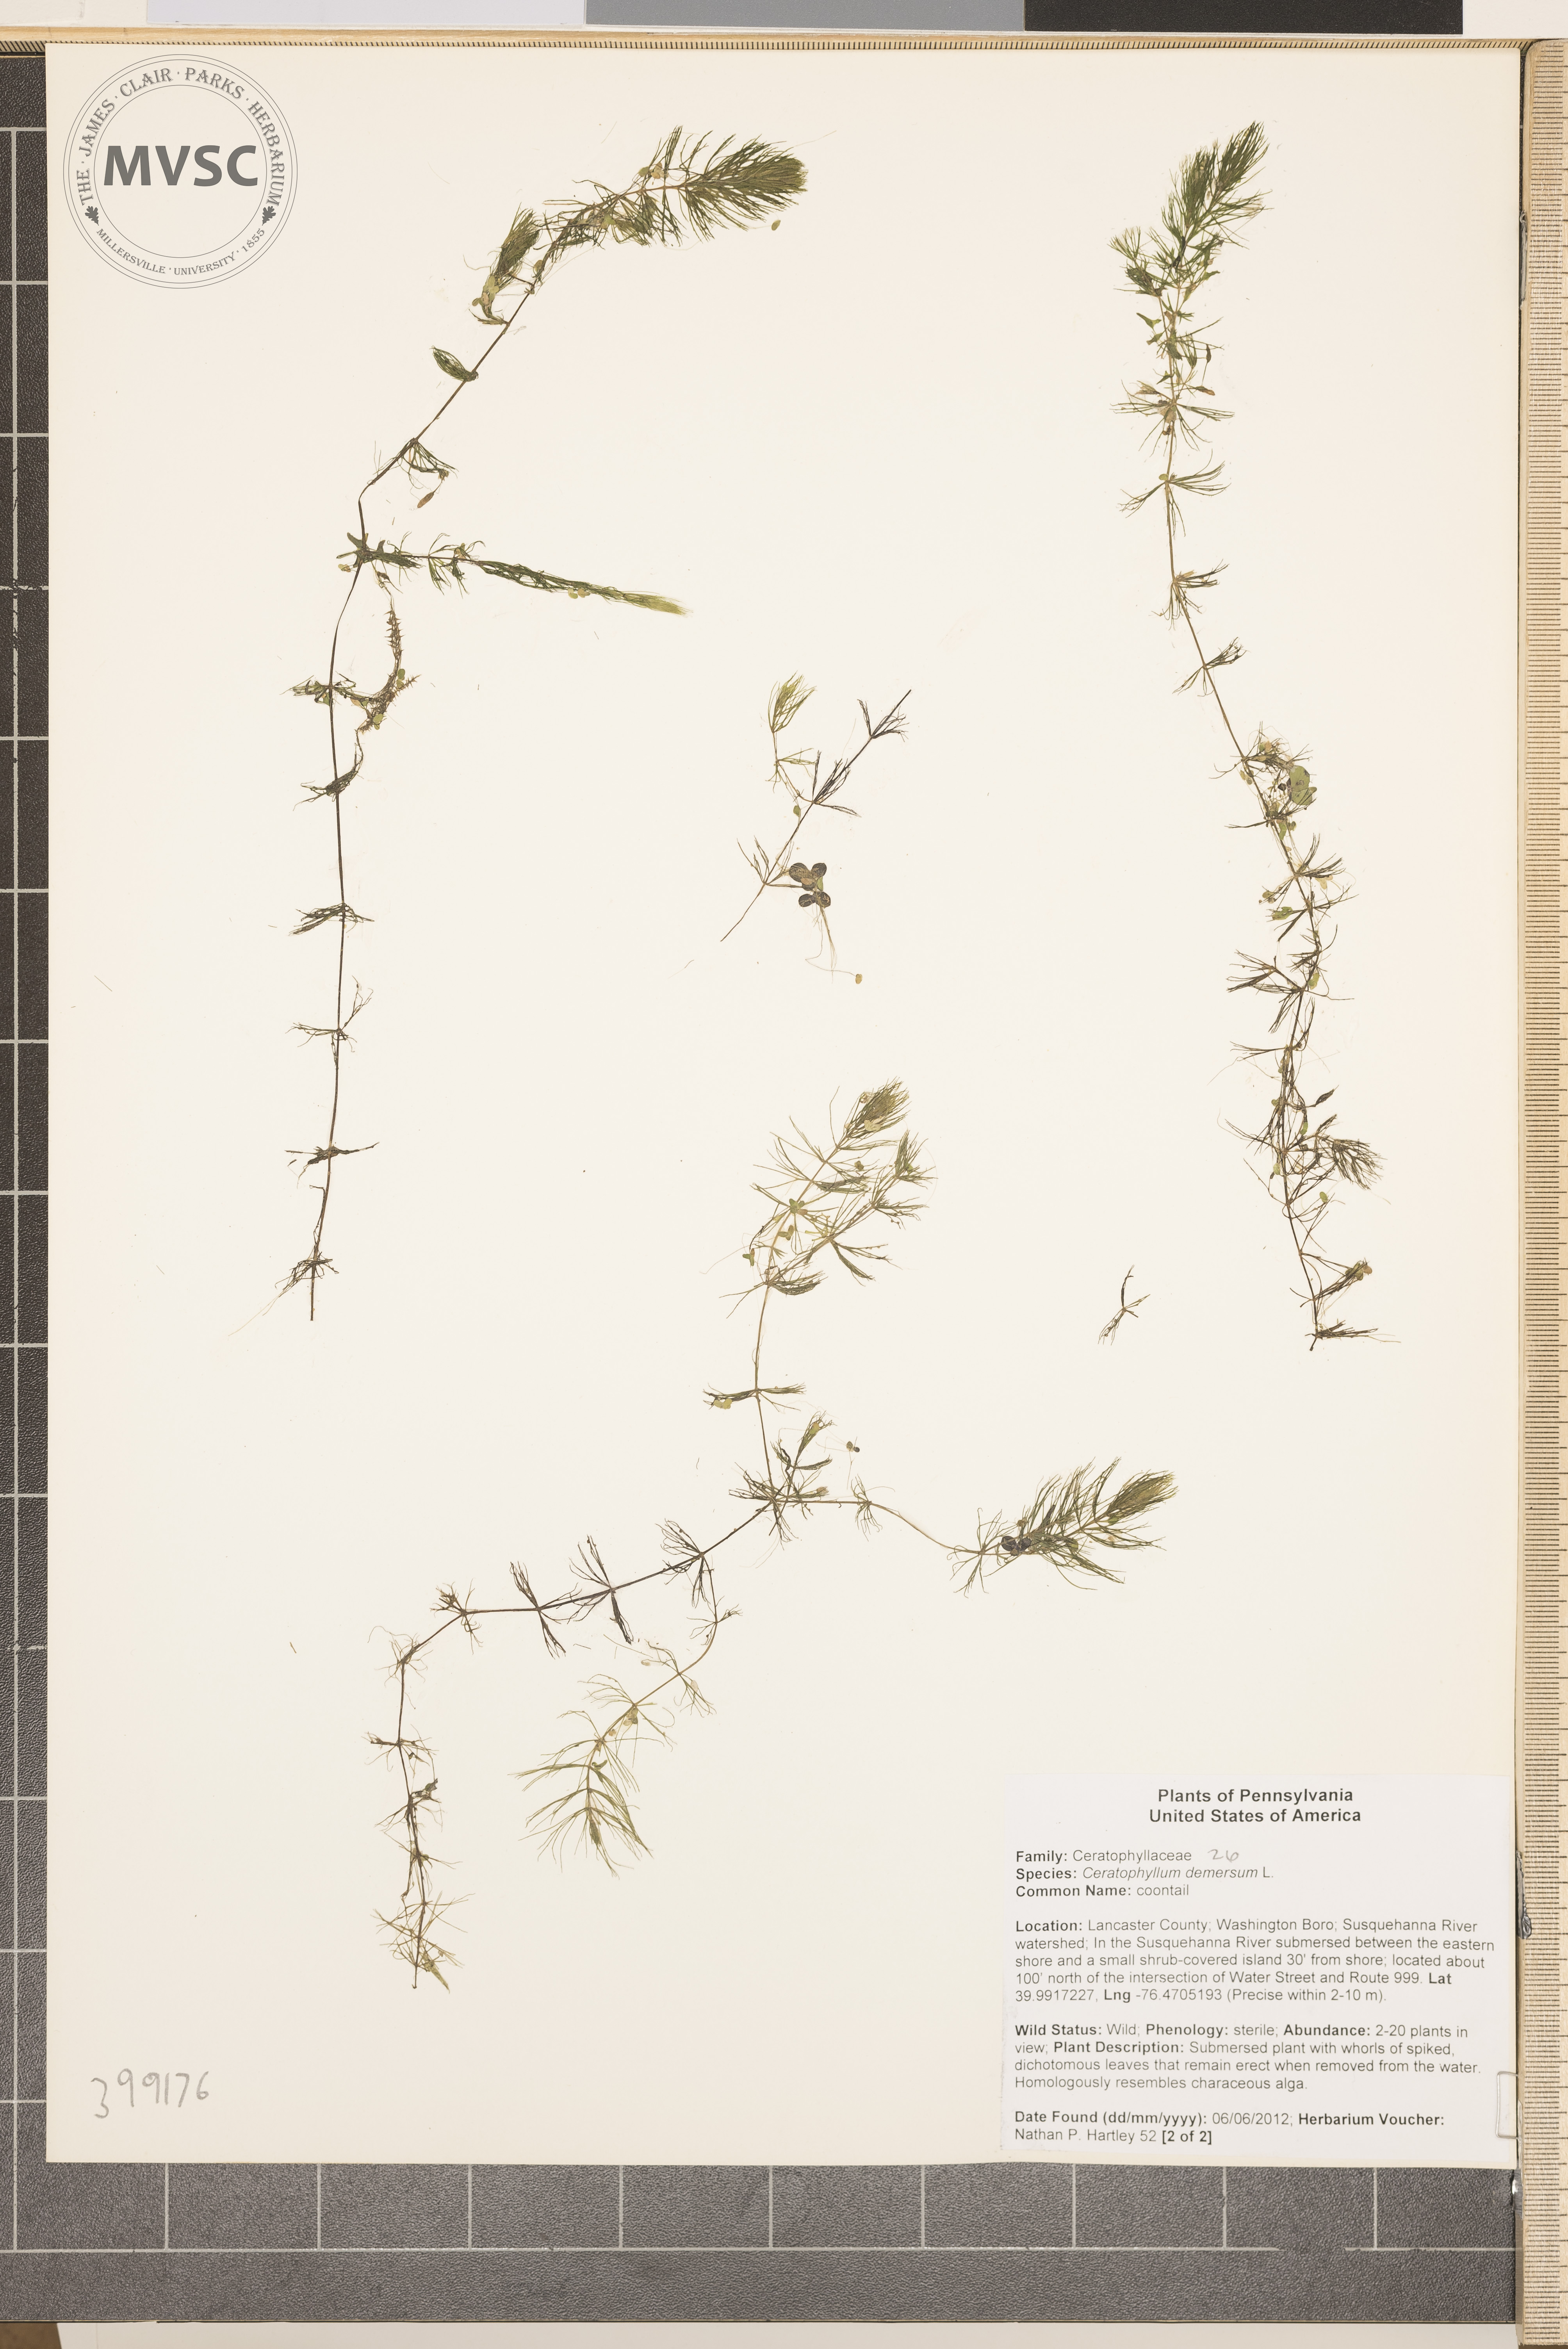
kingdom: Plantae
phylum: Tracheophyta
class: Magnoliopsida
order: Ceratophyllales
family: Ceratophyllaceae
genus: Ceratophyllum
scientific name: Ceratophyllum demersum
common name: Coontail
